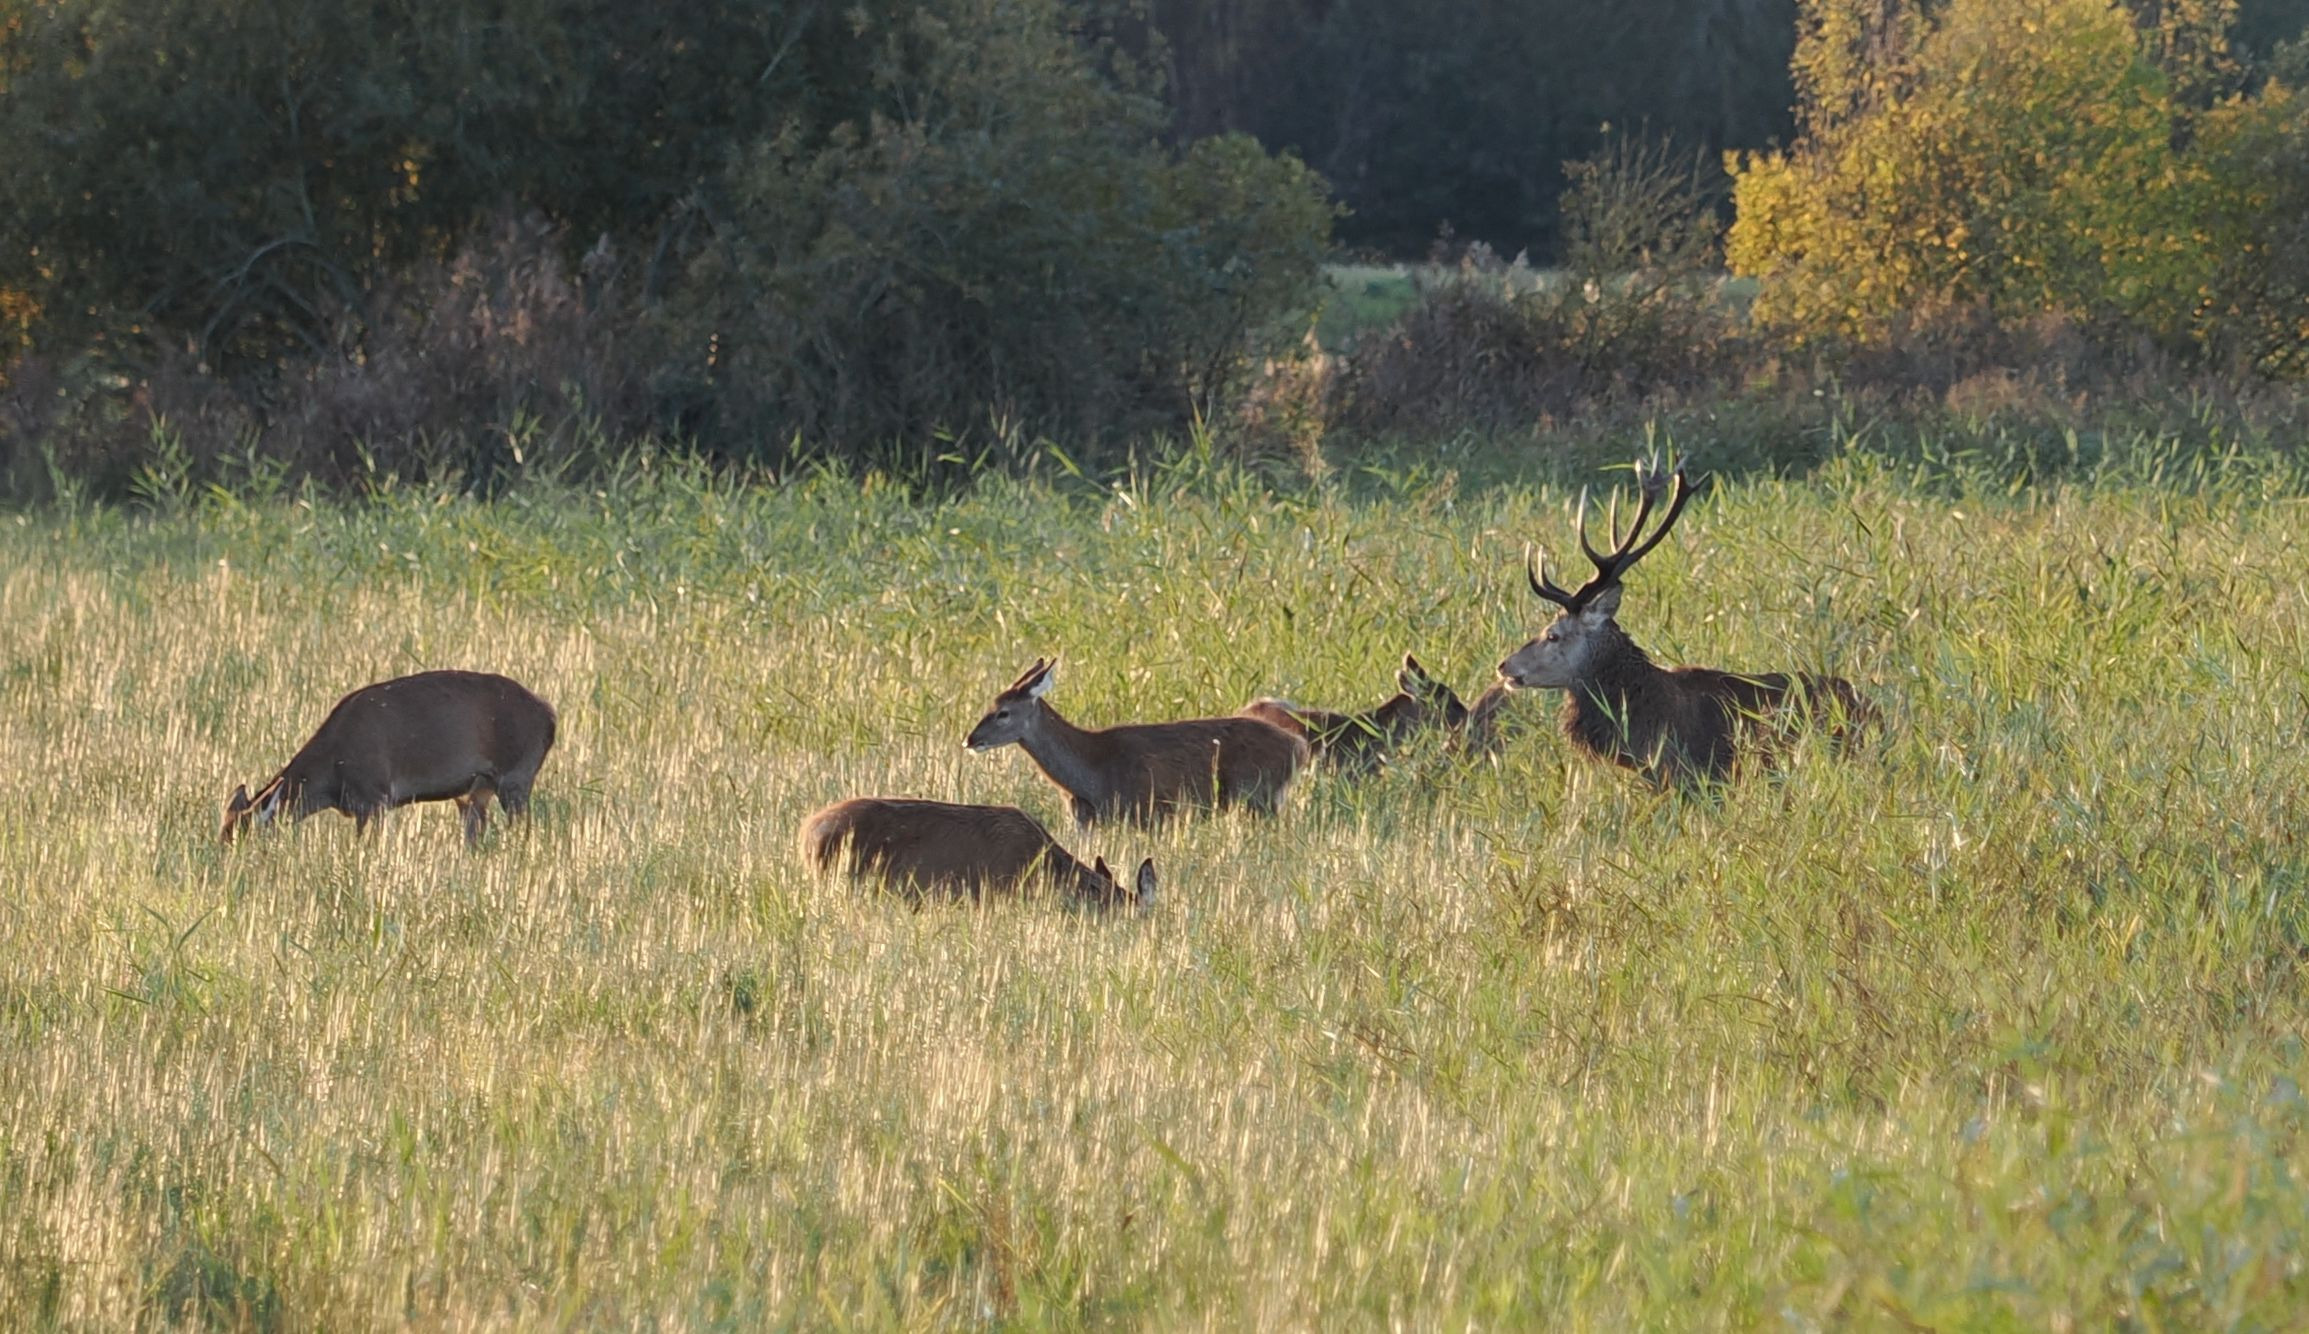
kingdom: Animalia
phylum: Chordata
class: Mammalia
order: Artiodactyla
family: Cervidae
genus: Cervus
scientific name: Cervus elaphus
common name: Krondyr
